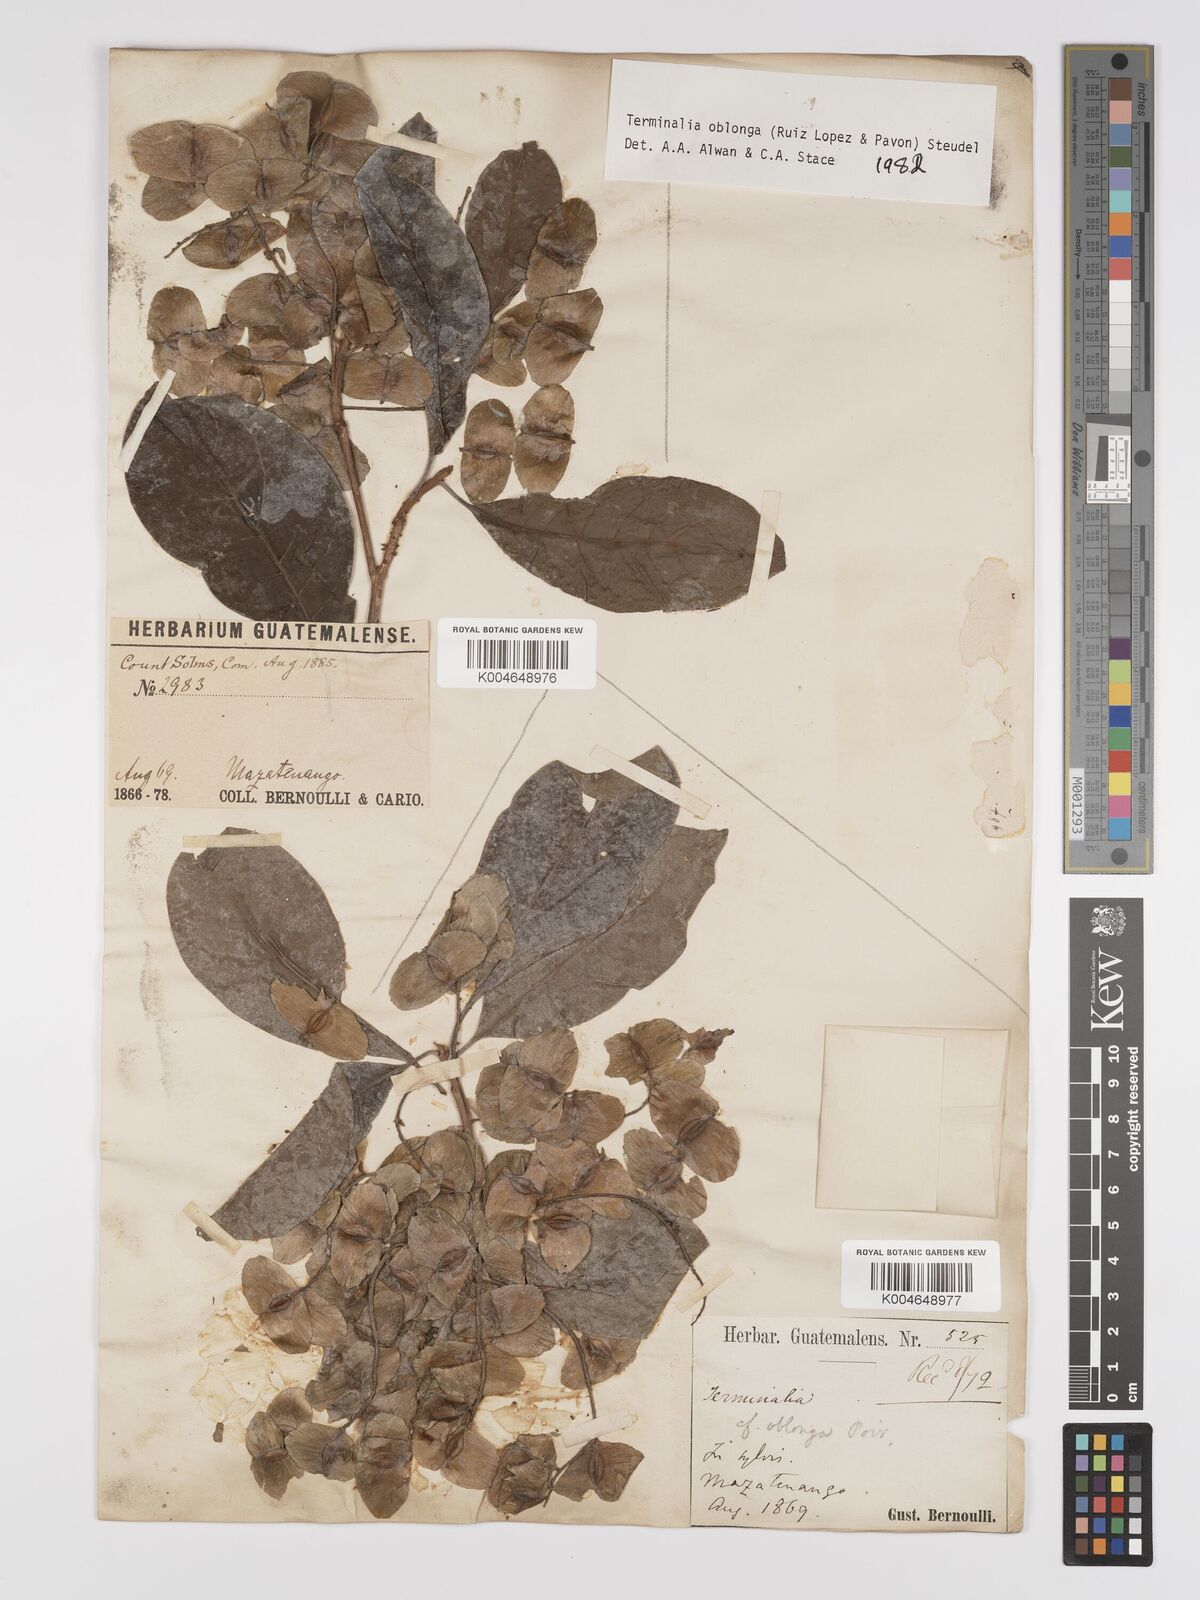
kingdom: Plantae
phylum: Tracheophyta
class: Magnoliopsida
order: Myrtales
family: Combretaceae
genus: Terminalia
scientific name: Terminalia oblonga
